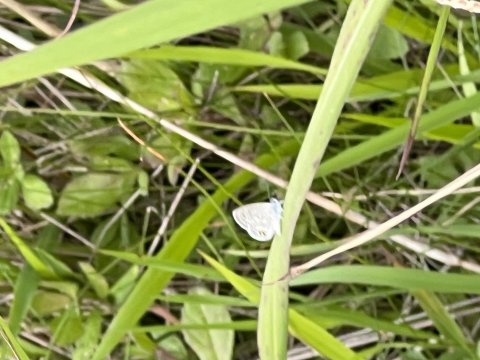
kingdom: Animalia
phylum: Arthropoda
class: Insecta
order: Lepidoptera
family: Lycaenidae
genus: Hemiargus
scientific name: Hemiargus ceraunus
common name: Ceraunus Blue
